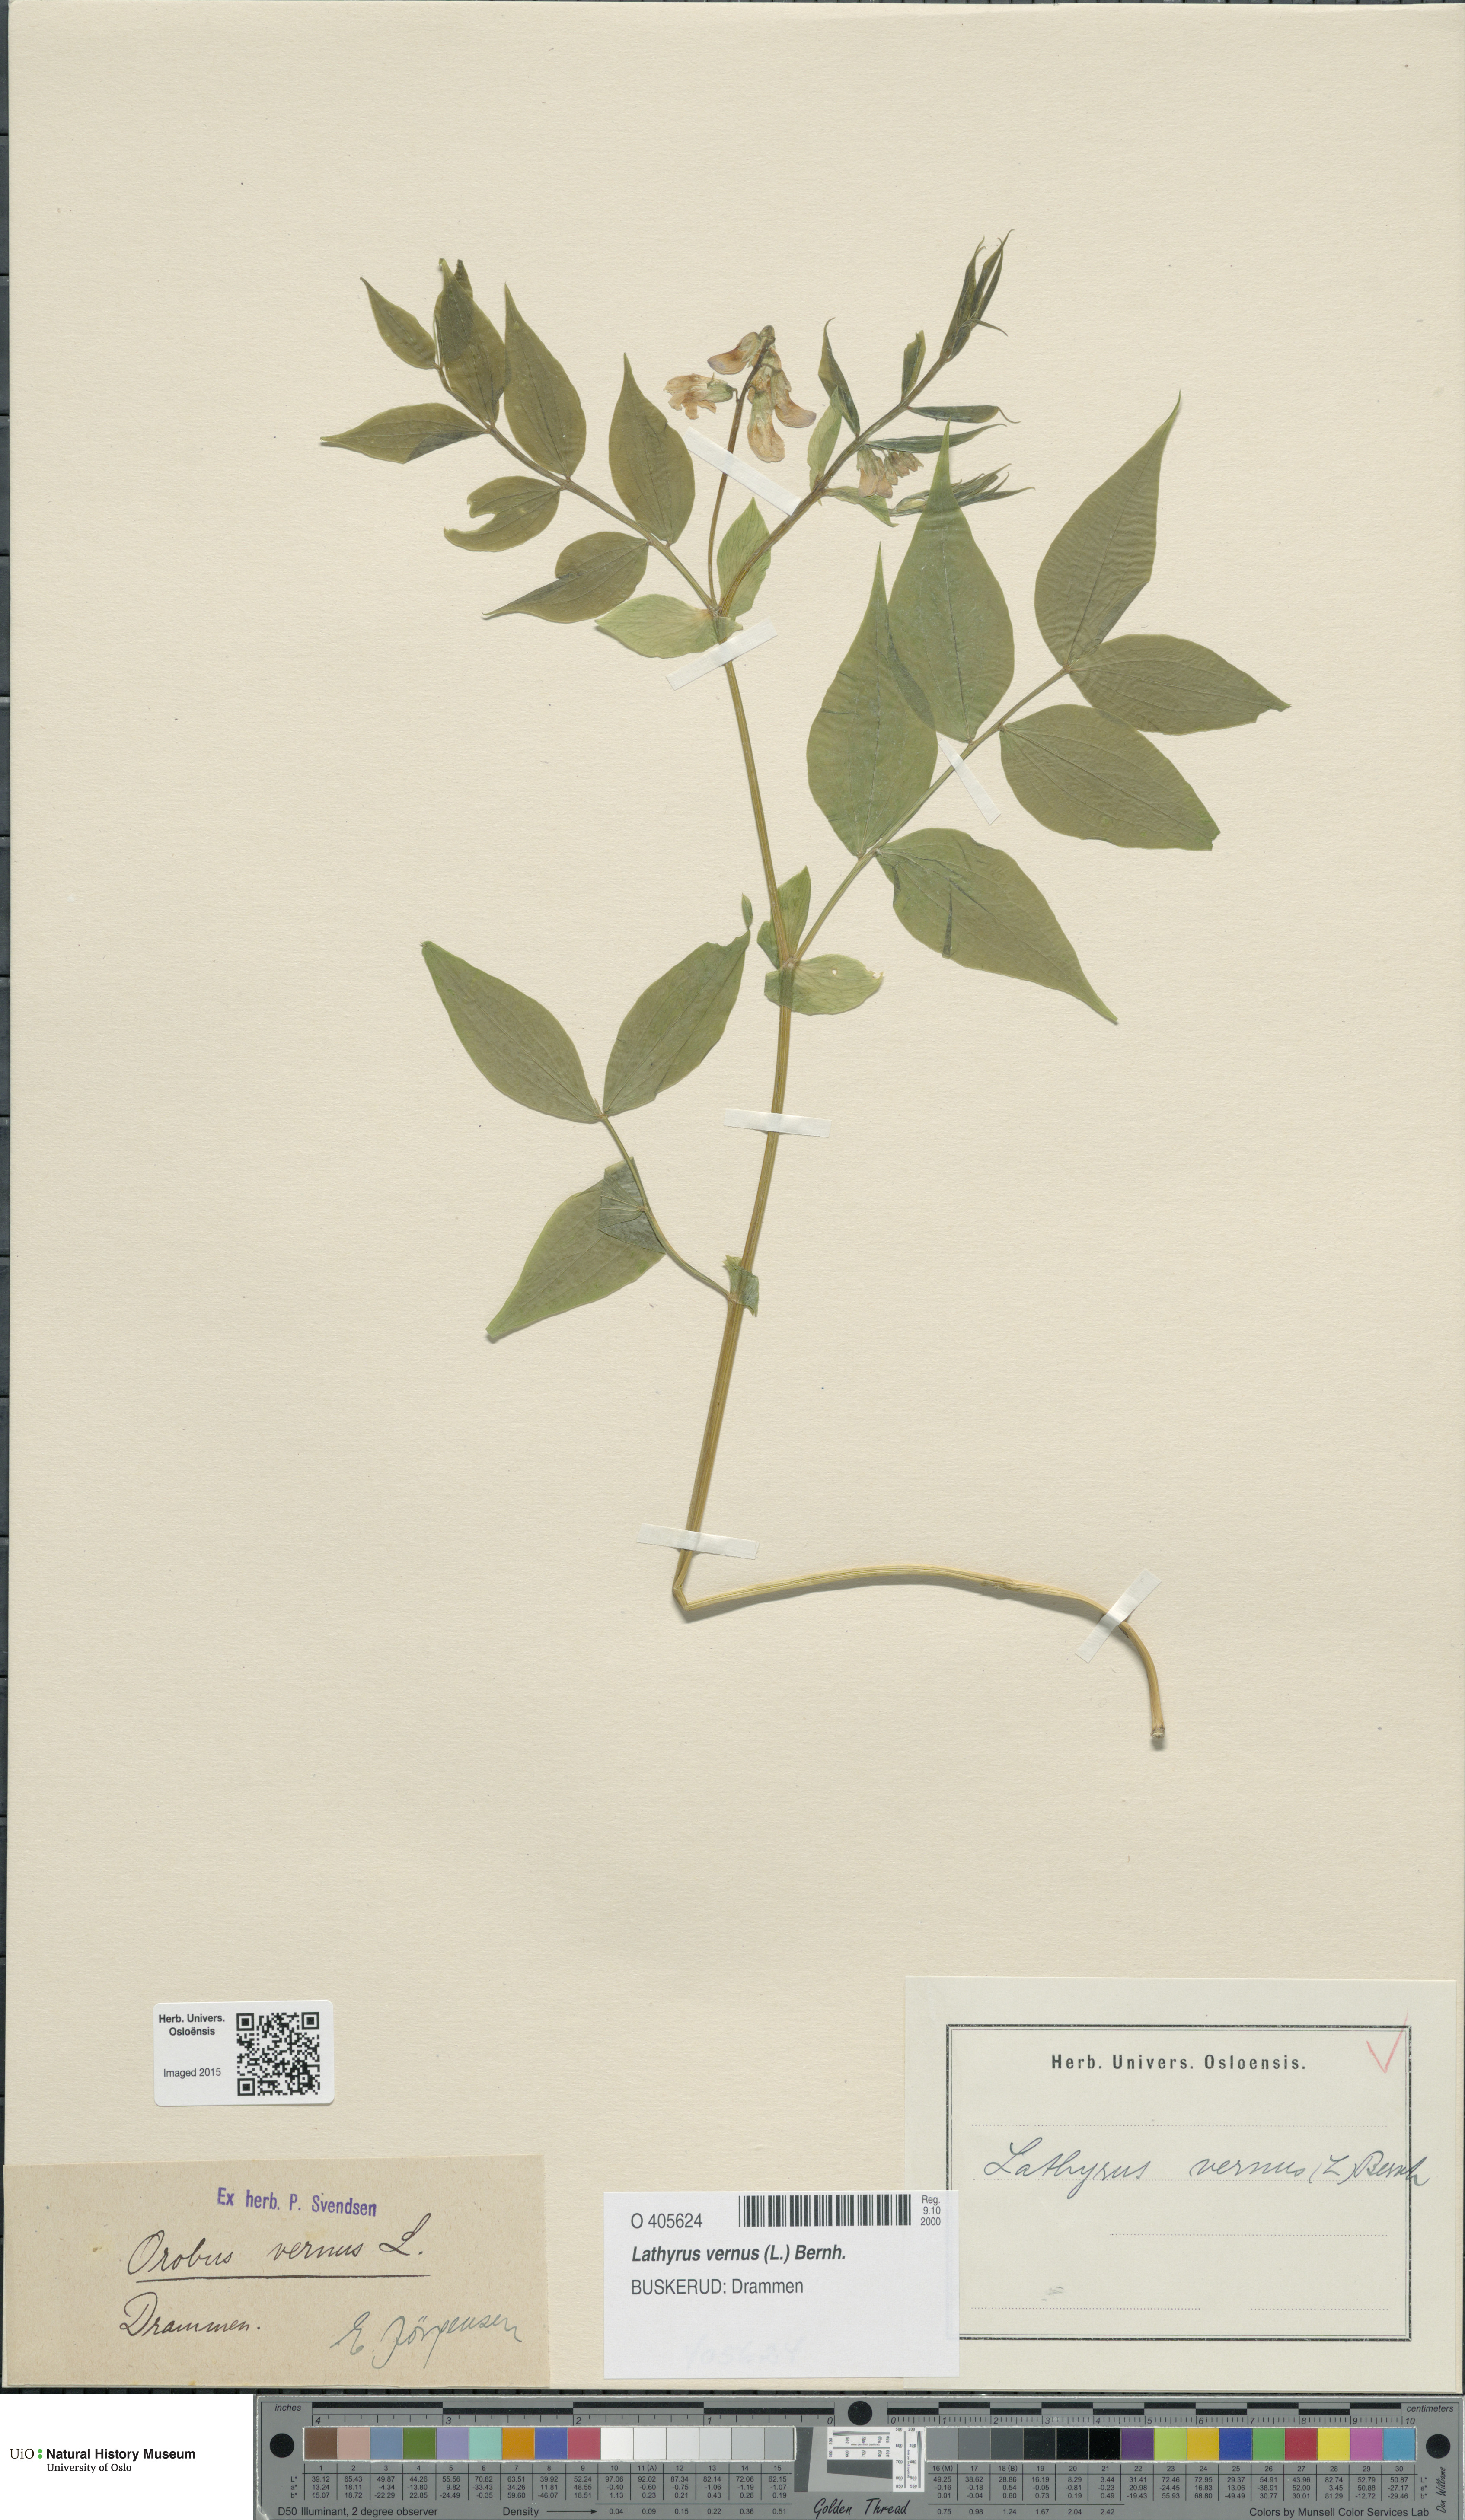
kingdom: Plantae
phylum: Tracheophyta
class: Magnoliopsida
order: Fabales
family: Fabaceae
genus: Lathyrus
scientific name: Lathyrus vernus
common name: Spring pea
